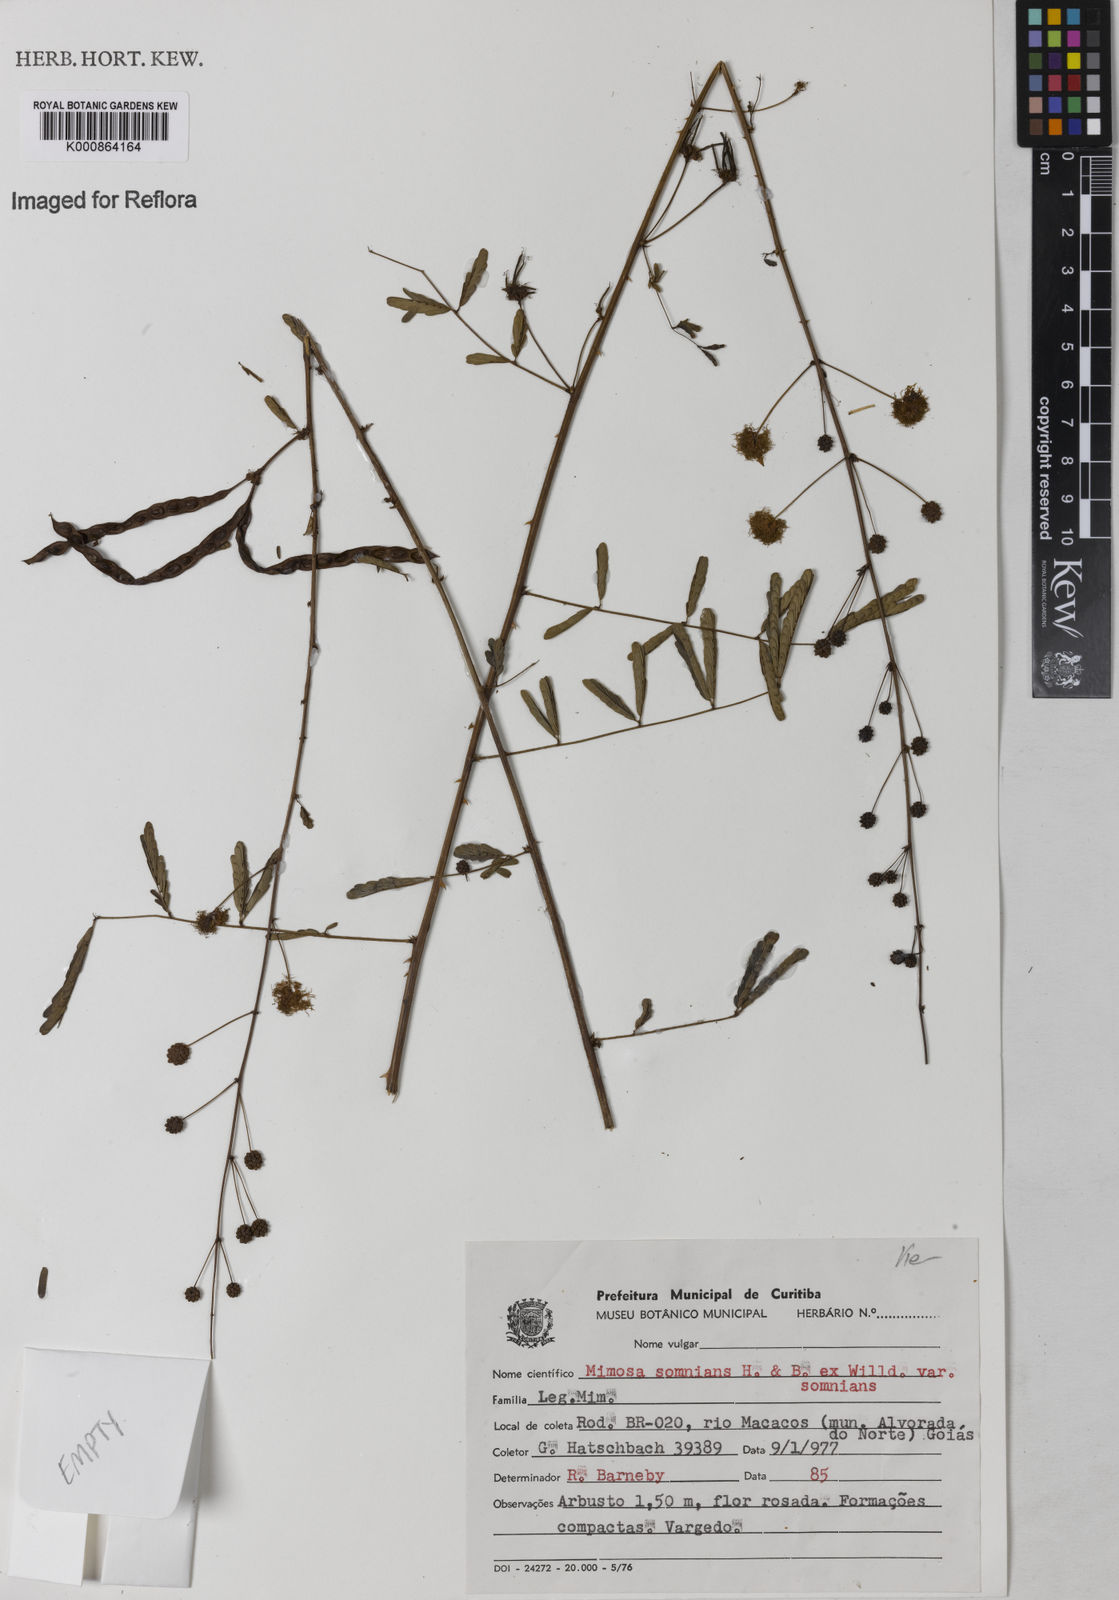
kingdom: Plantae
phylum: Tracheophyta
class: Magnoliopsida
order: Fabales
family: Fabaceae
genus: Mimosa
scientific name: Mimosa somnians
